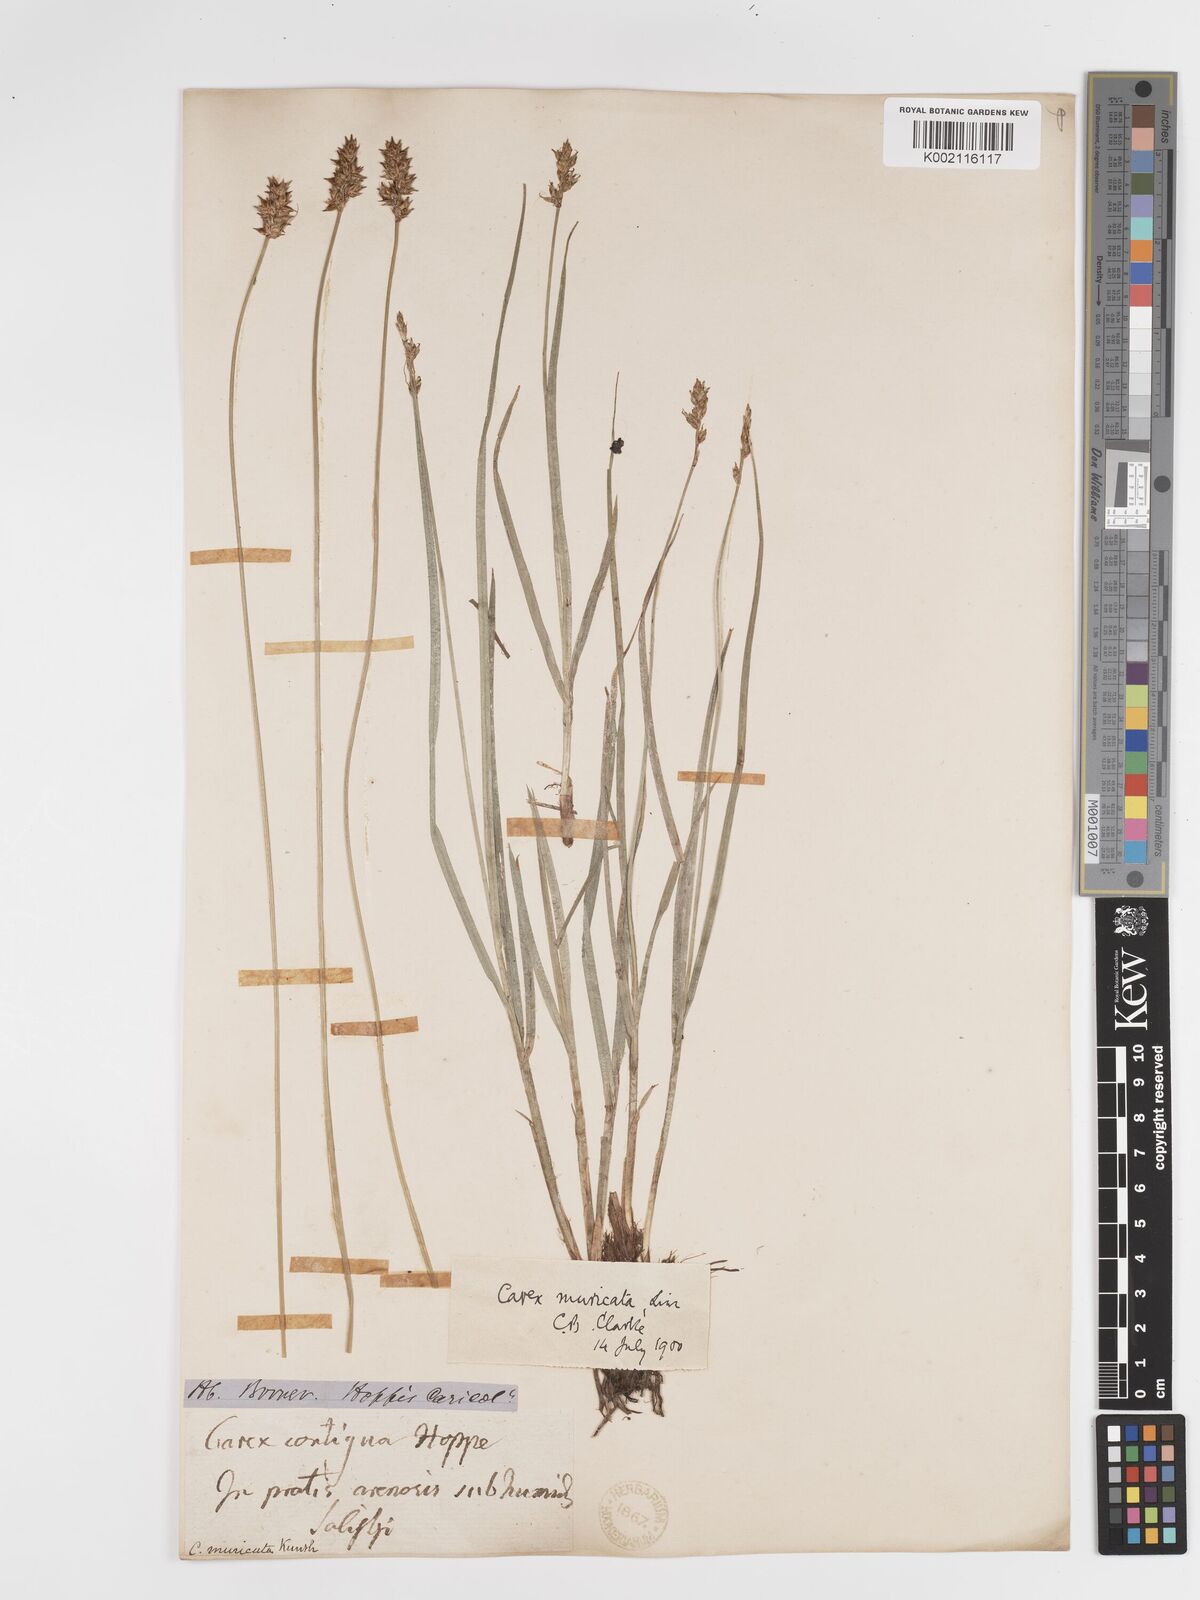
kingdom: Plantae
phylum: Tracheophyta
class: Liliopsida
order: Poales
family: Cyperaceae
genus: Carex
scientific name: Carex spicata
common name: Spiked sedge
